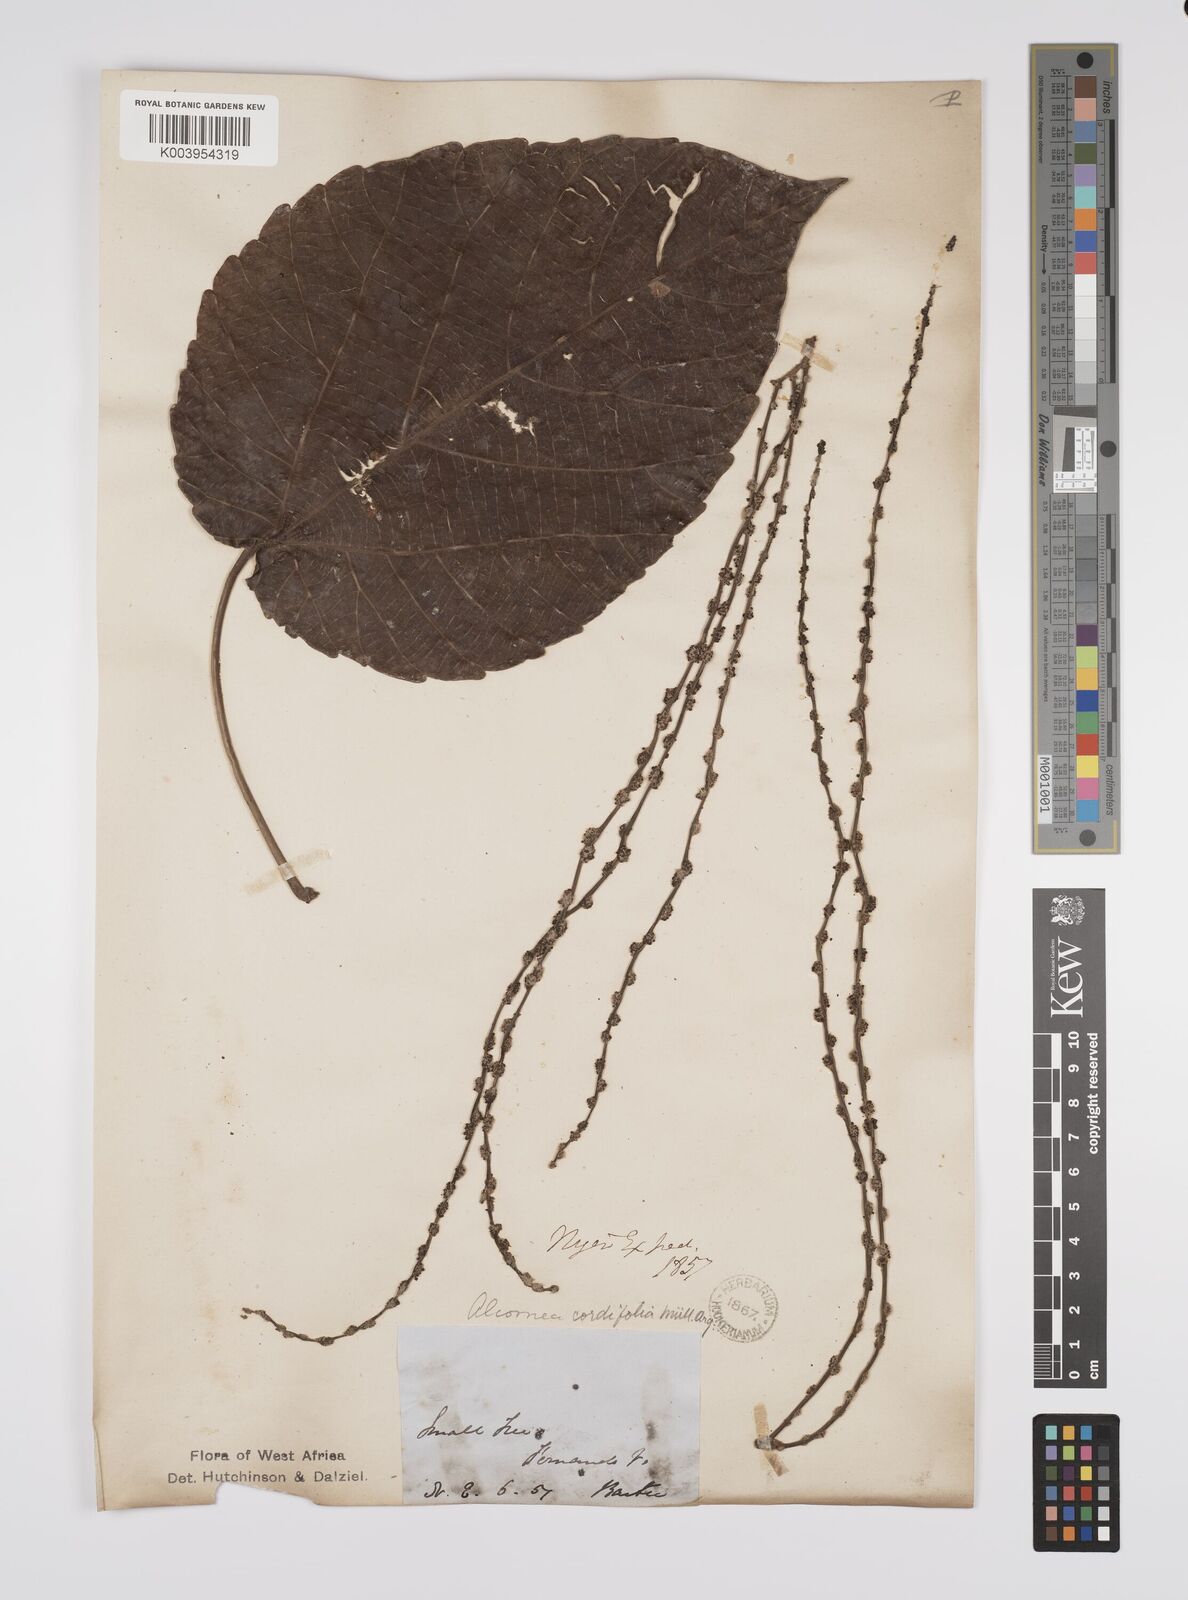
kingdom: Plantae
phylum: Tracheophyta
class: Magnoliopsida
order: Malpighiales
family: Euphorbiaceae
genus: Alchornea
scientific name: Alchornea cordifolia
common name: Christmasbush
